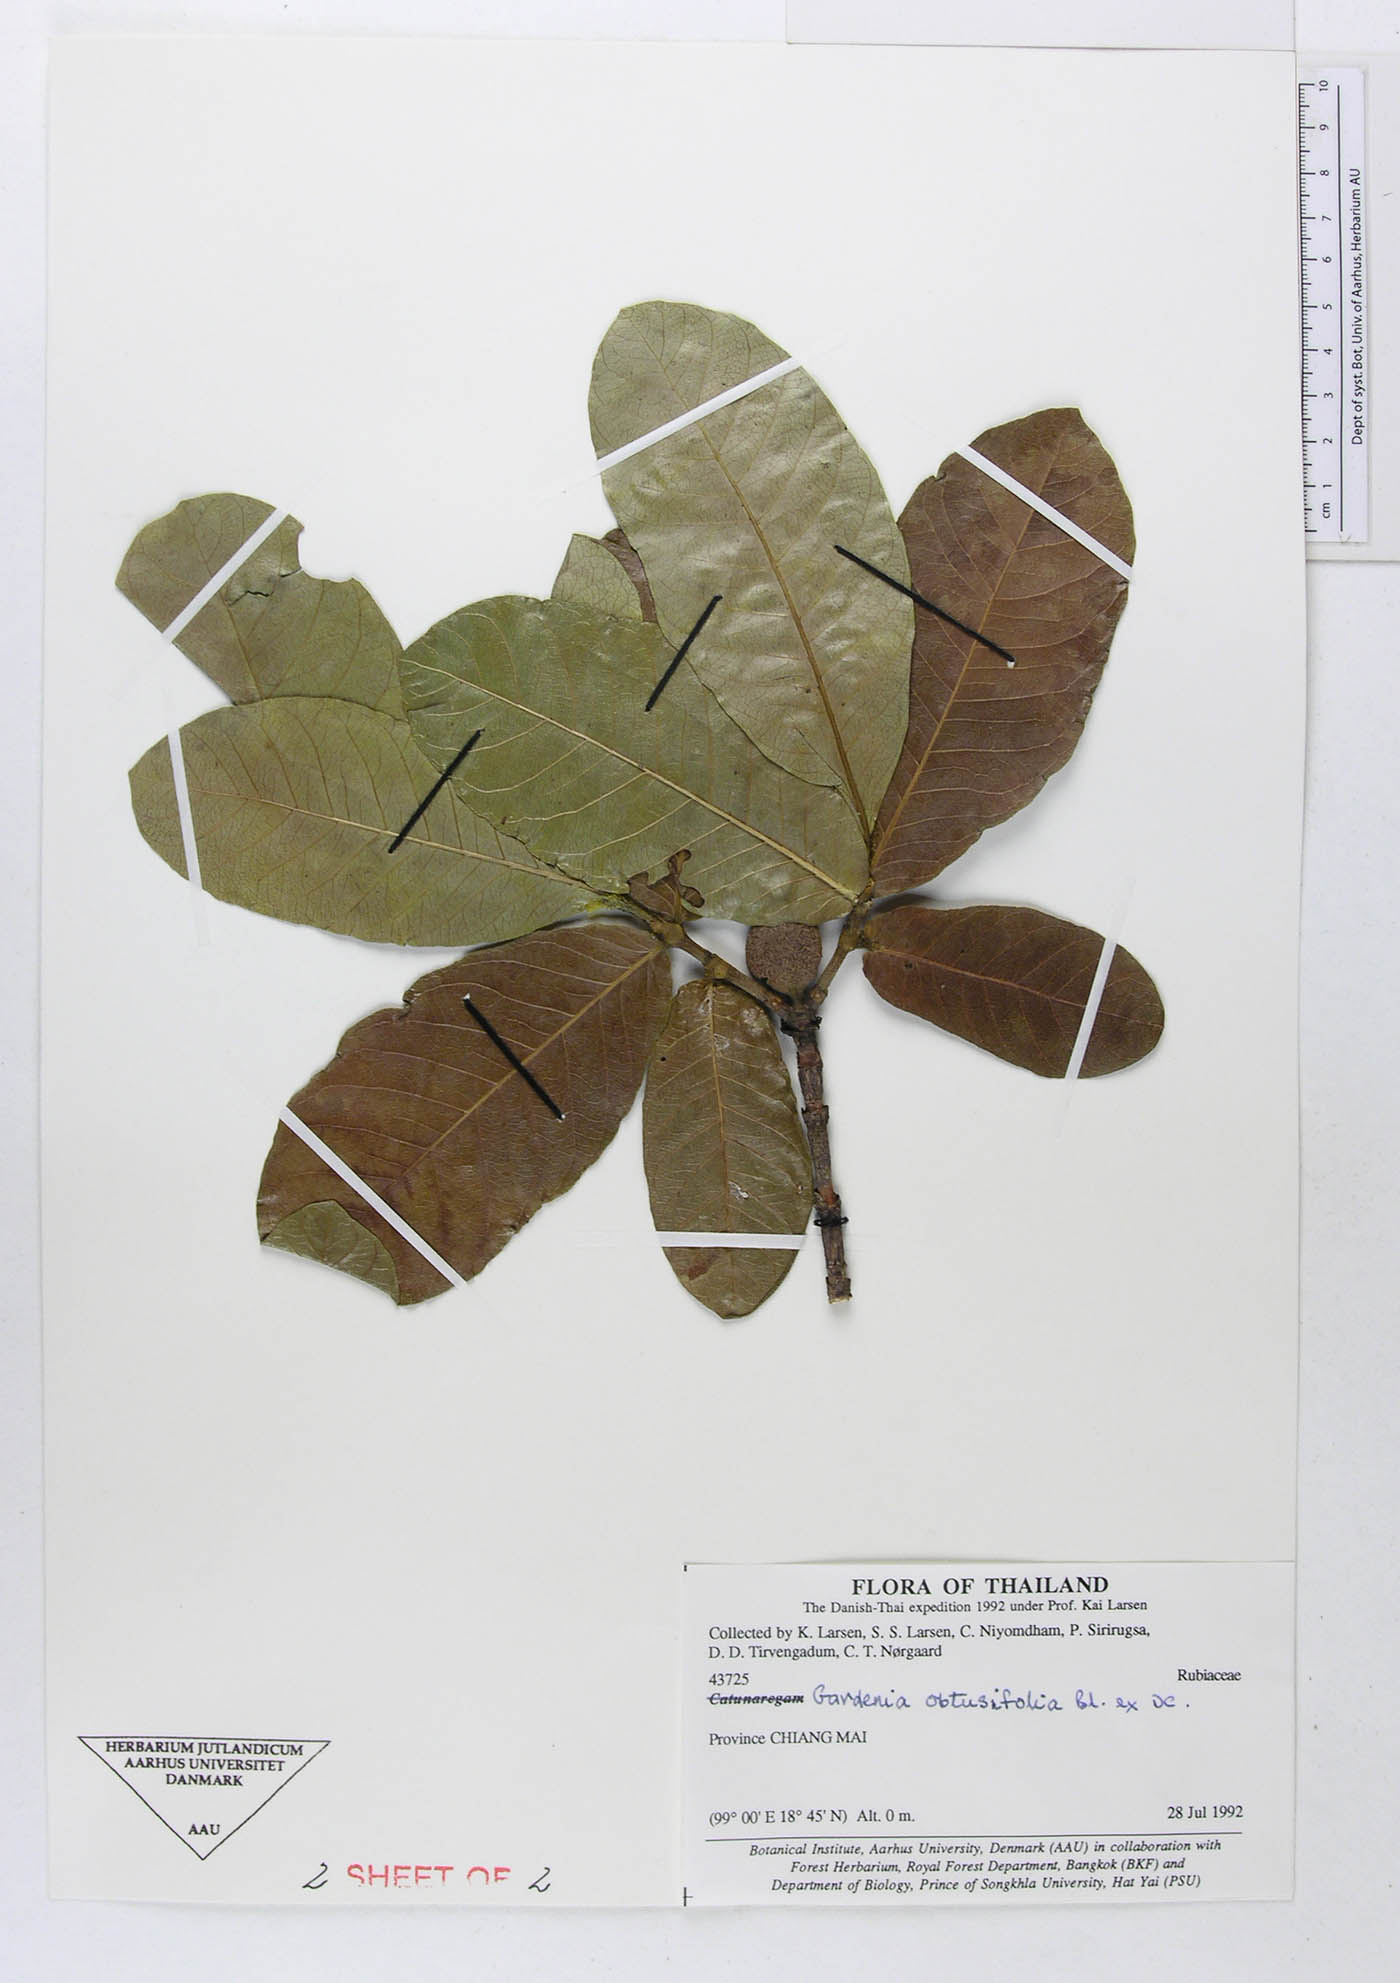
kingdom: Plantae
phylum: Tracheophyta
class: Magnoliopsida
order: Gentianales
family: Rubiaceae
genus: Catunaregam
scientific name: Catunaregam
